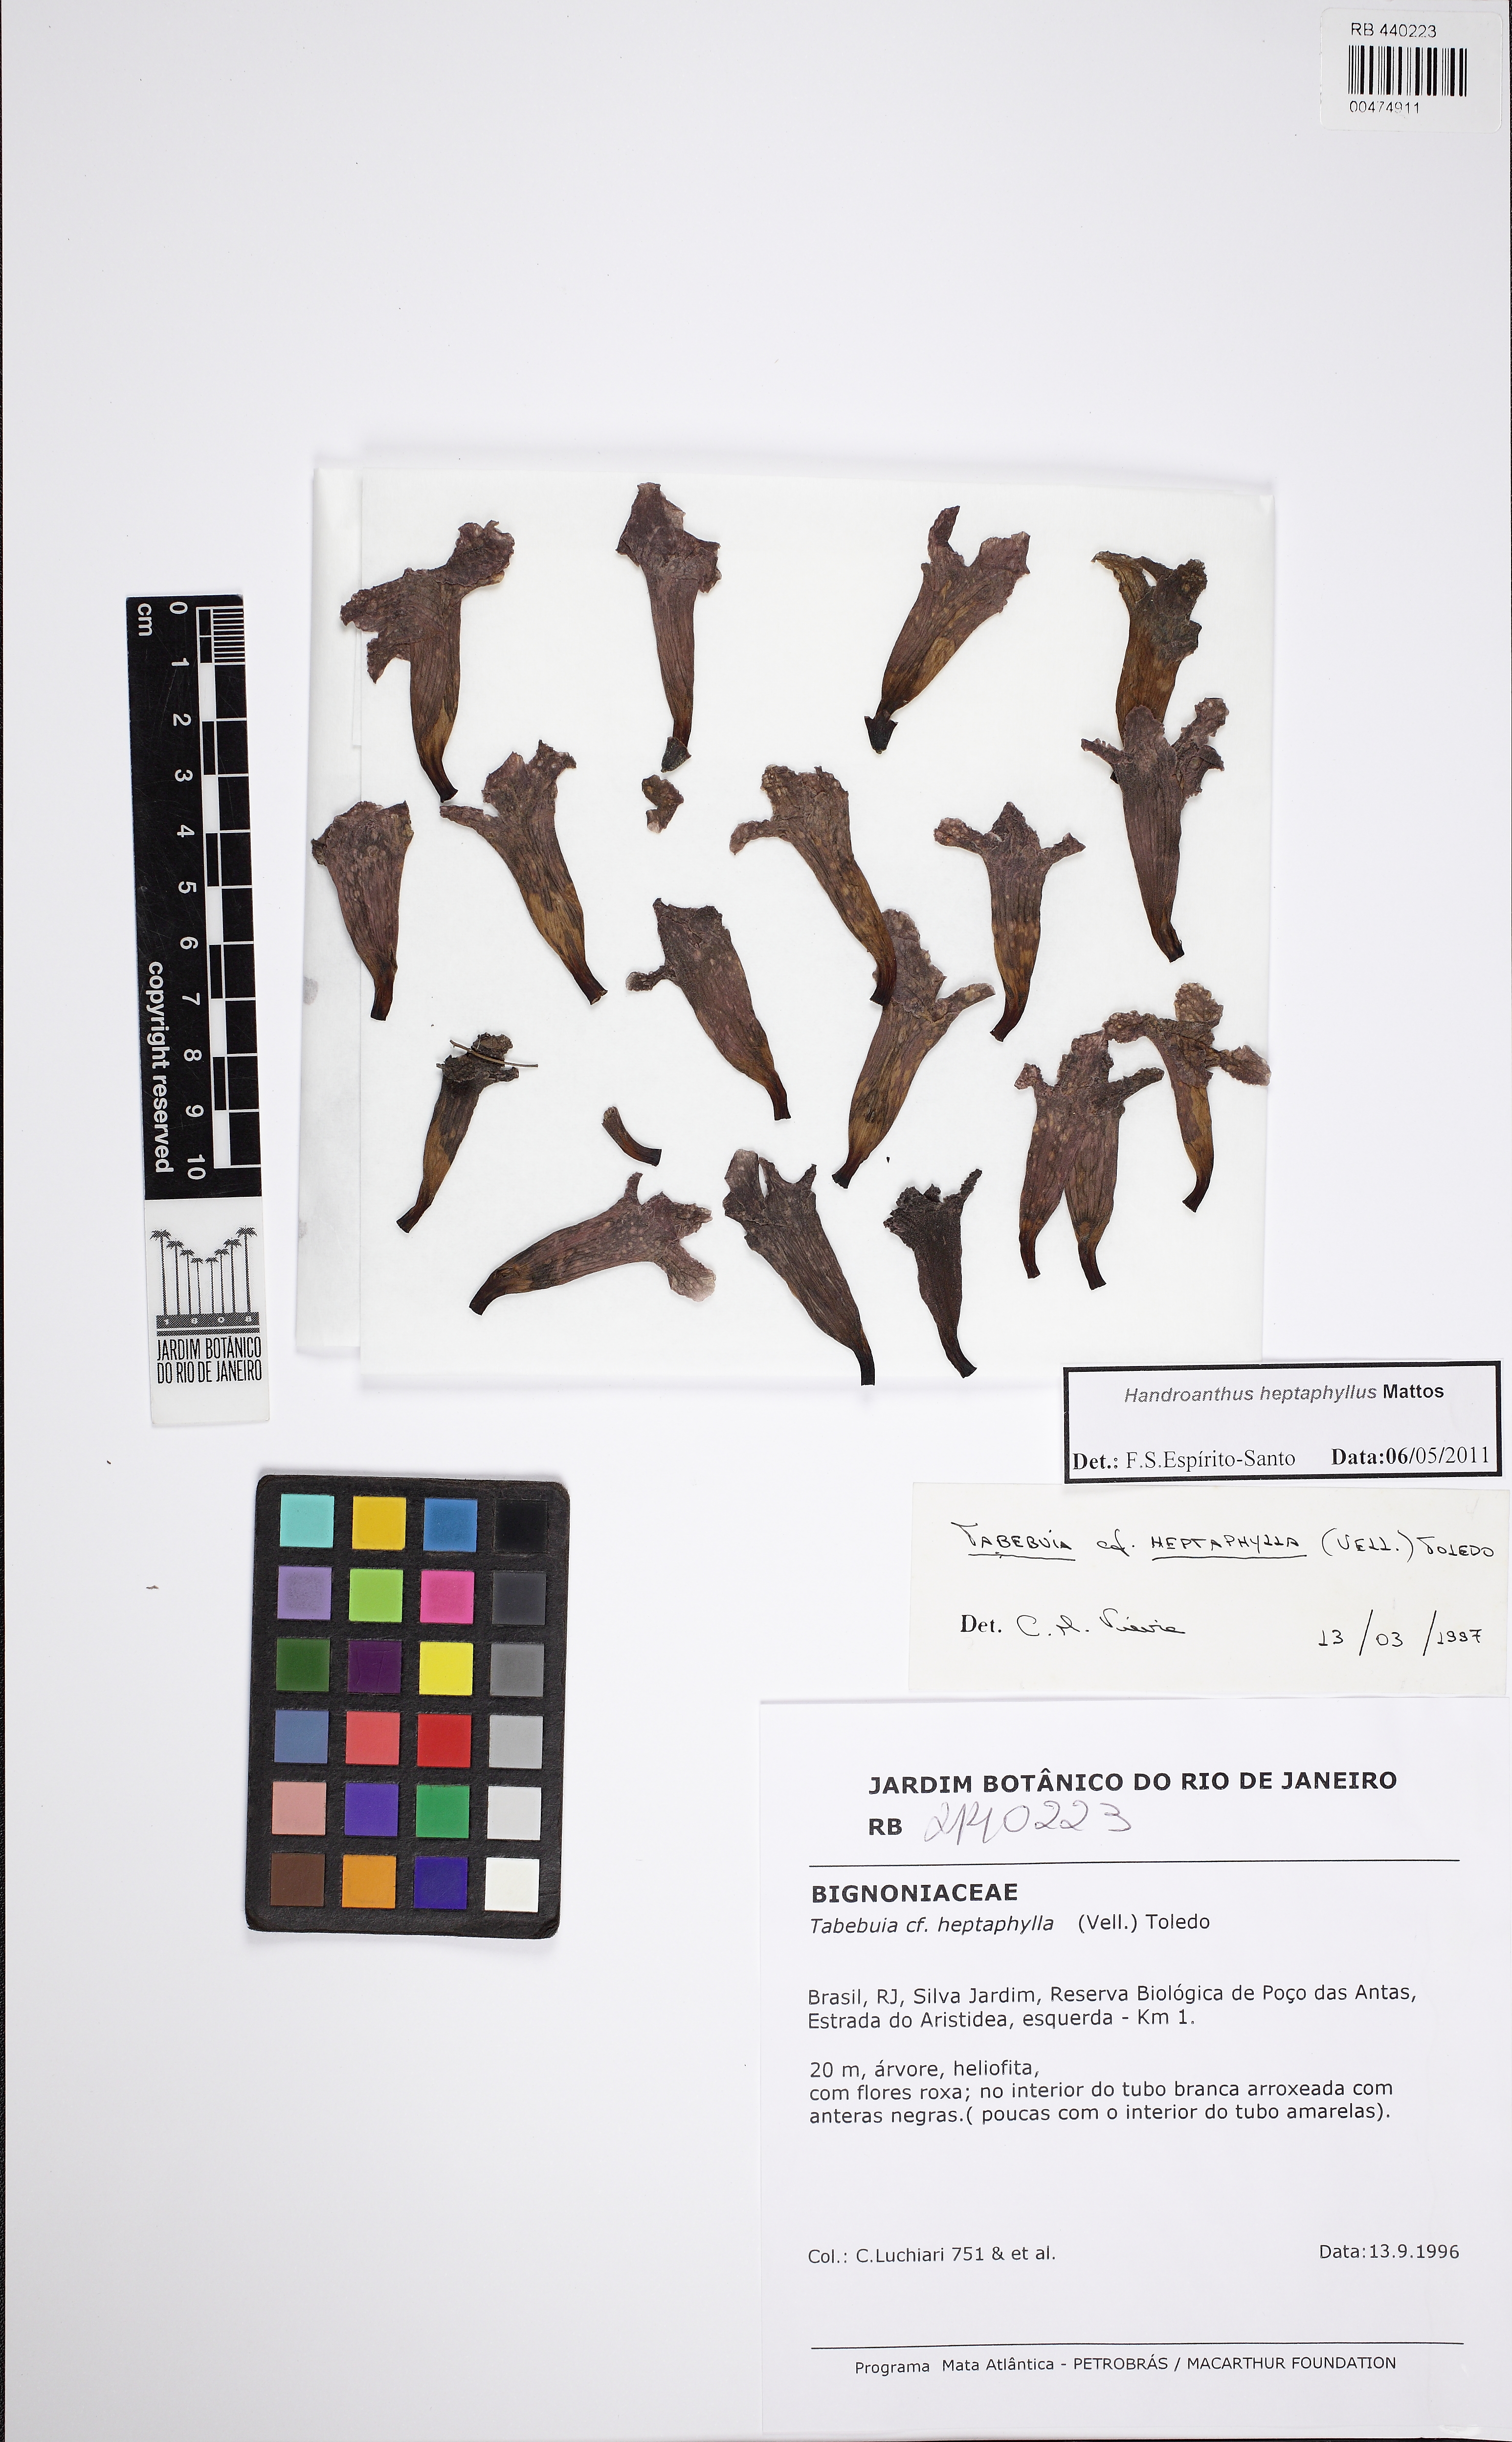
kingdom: Plantae
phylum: Tracheophyta
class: Magnoliopsida
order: Lamiales
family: Bignoniaceae
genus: Handroanthus
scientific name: Handroanthus heptaphyllus
